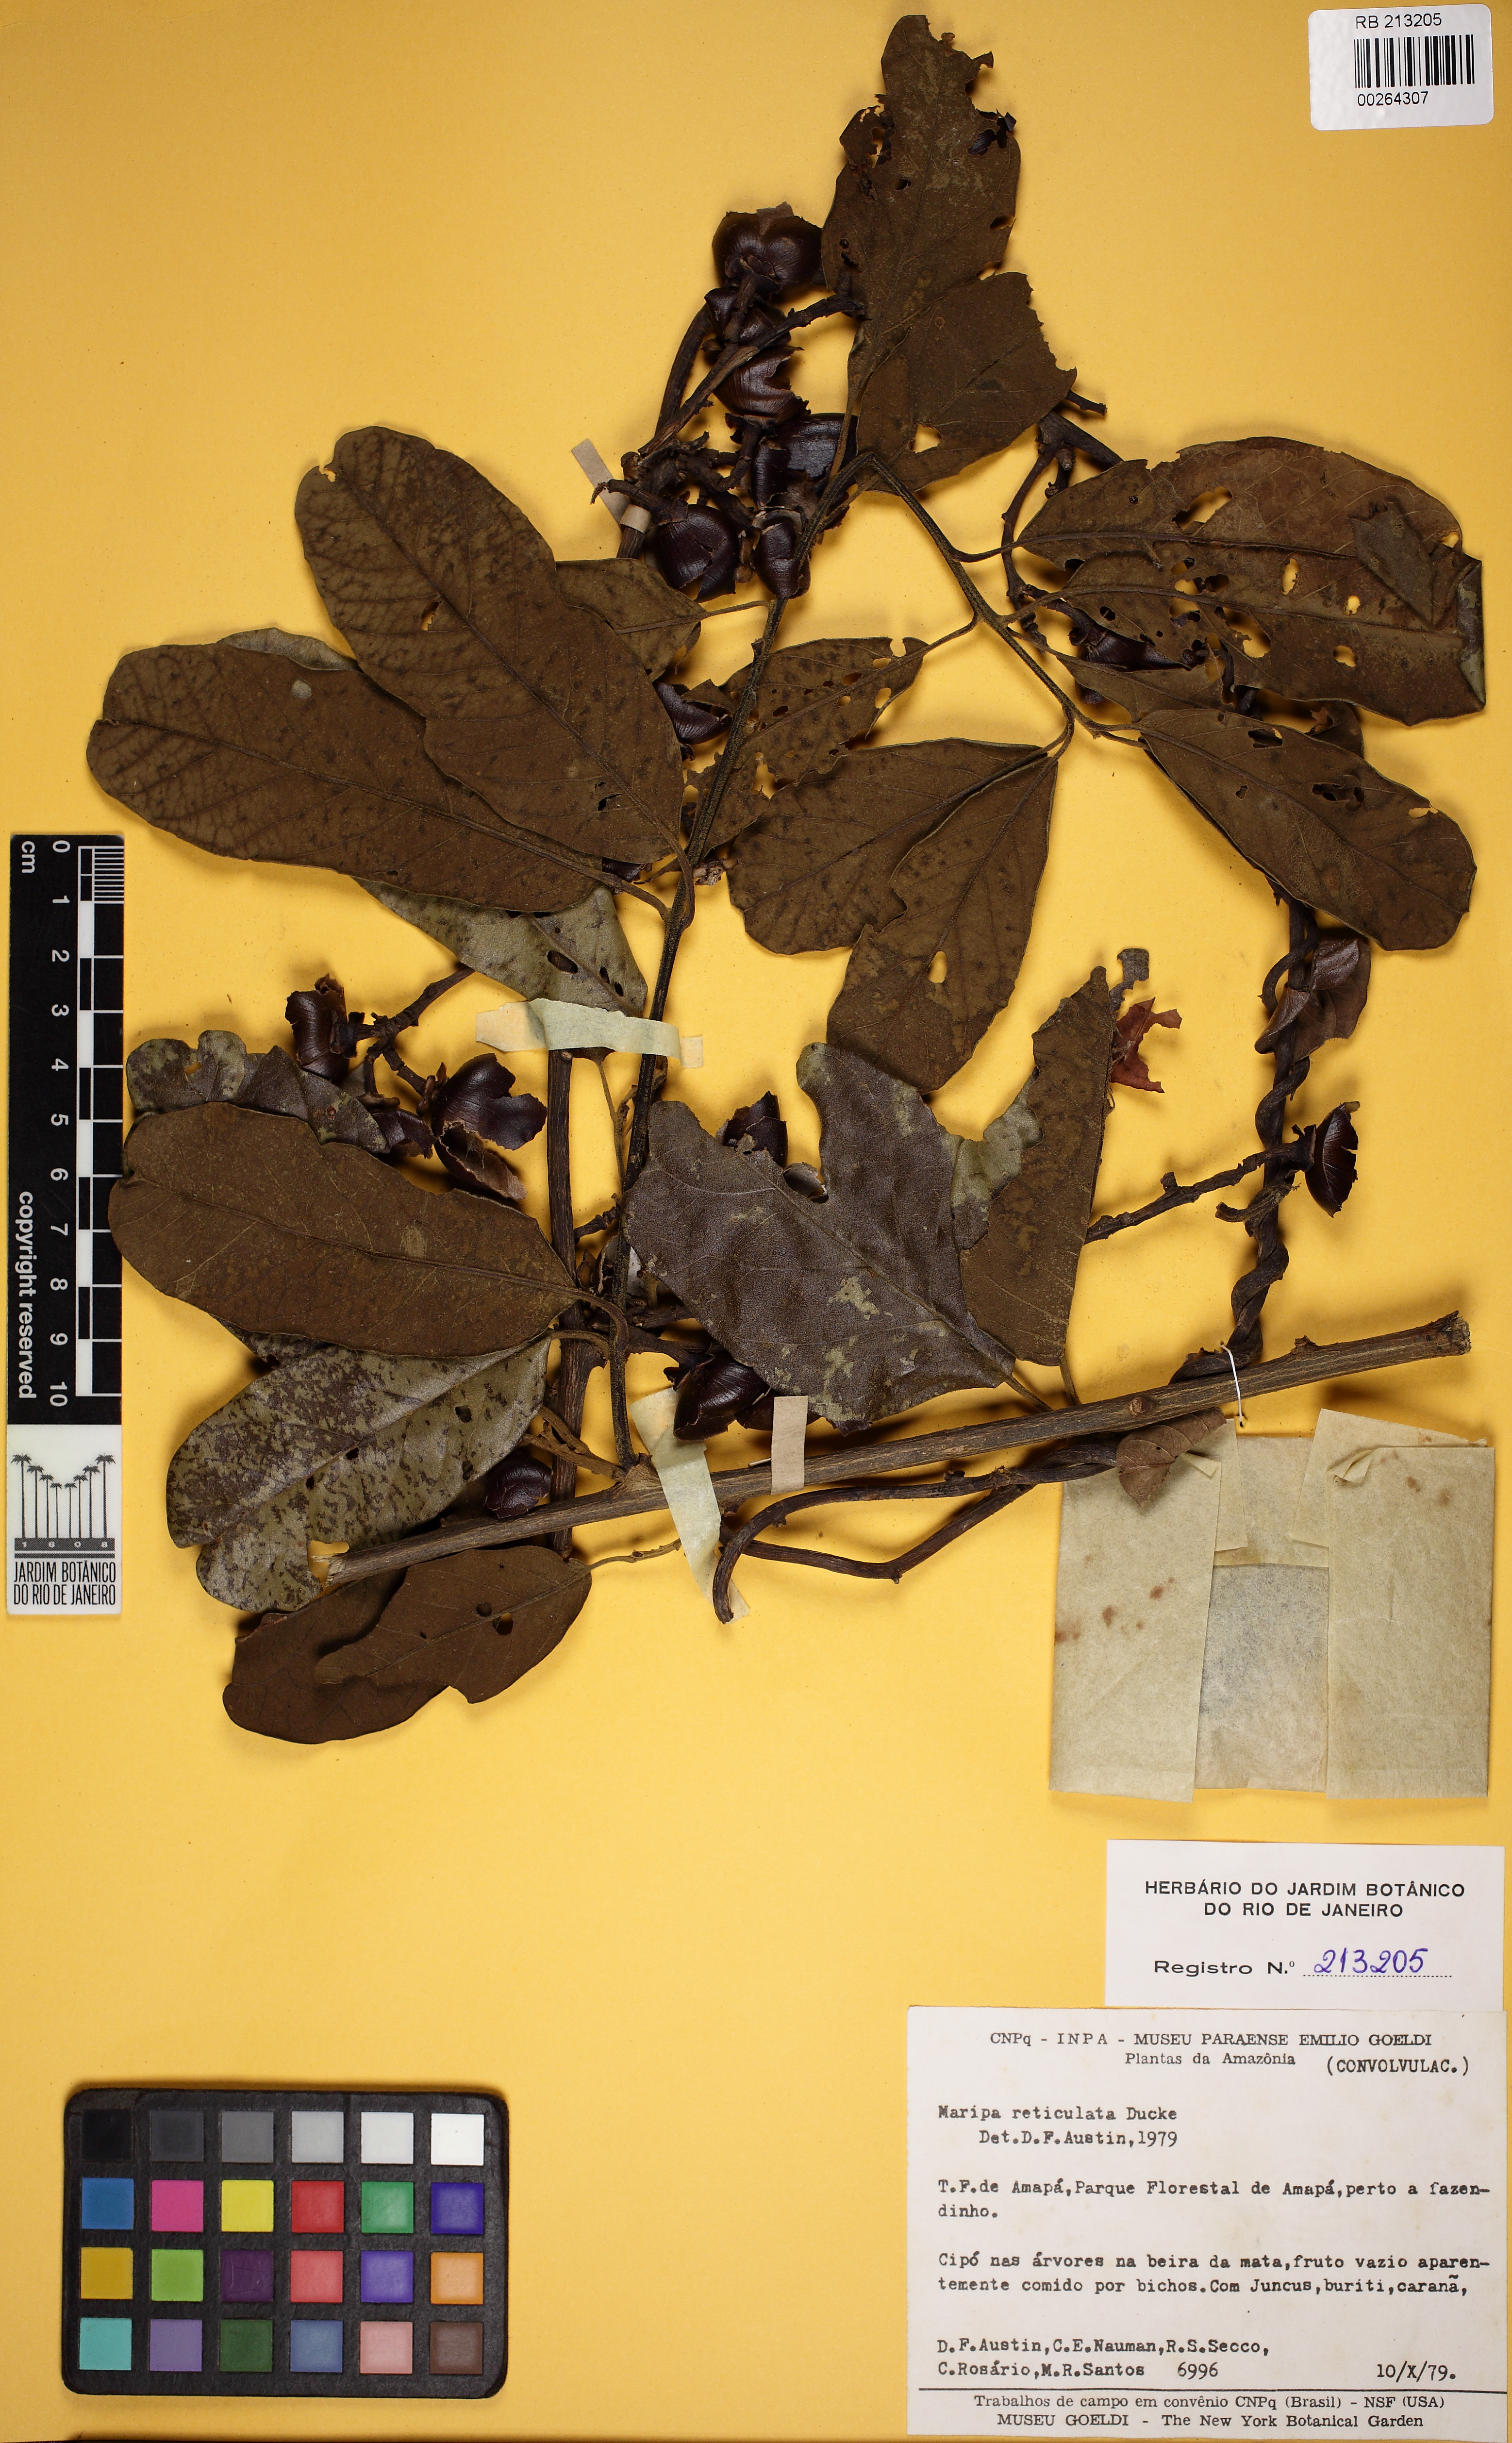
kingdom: Plantae
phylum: Tracheophyta
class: Magnoliopsida
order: Solanales
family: Convolvulaceae
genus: Maripa
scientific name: Maripa reticulata
